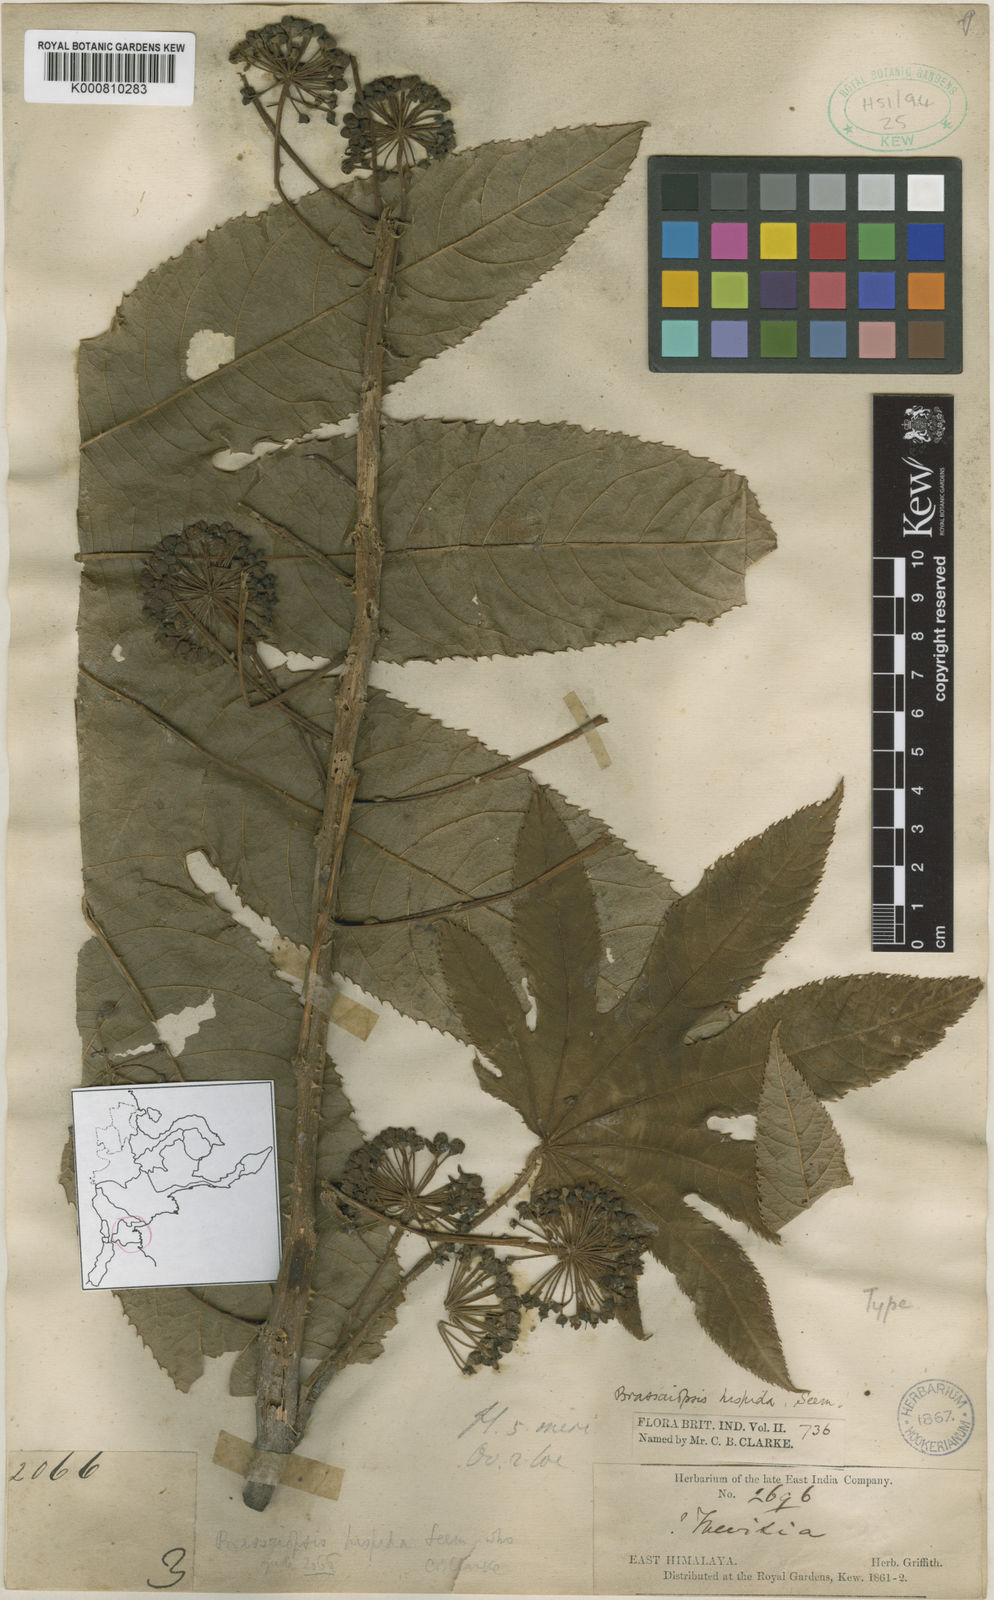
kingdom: Plantae
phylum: Tracheophyta
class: Magnoliopsida
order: Apiales
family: Araliaceae
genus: Brassaiopsis
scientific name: Brassaiopsis hispida
